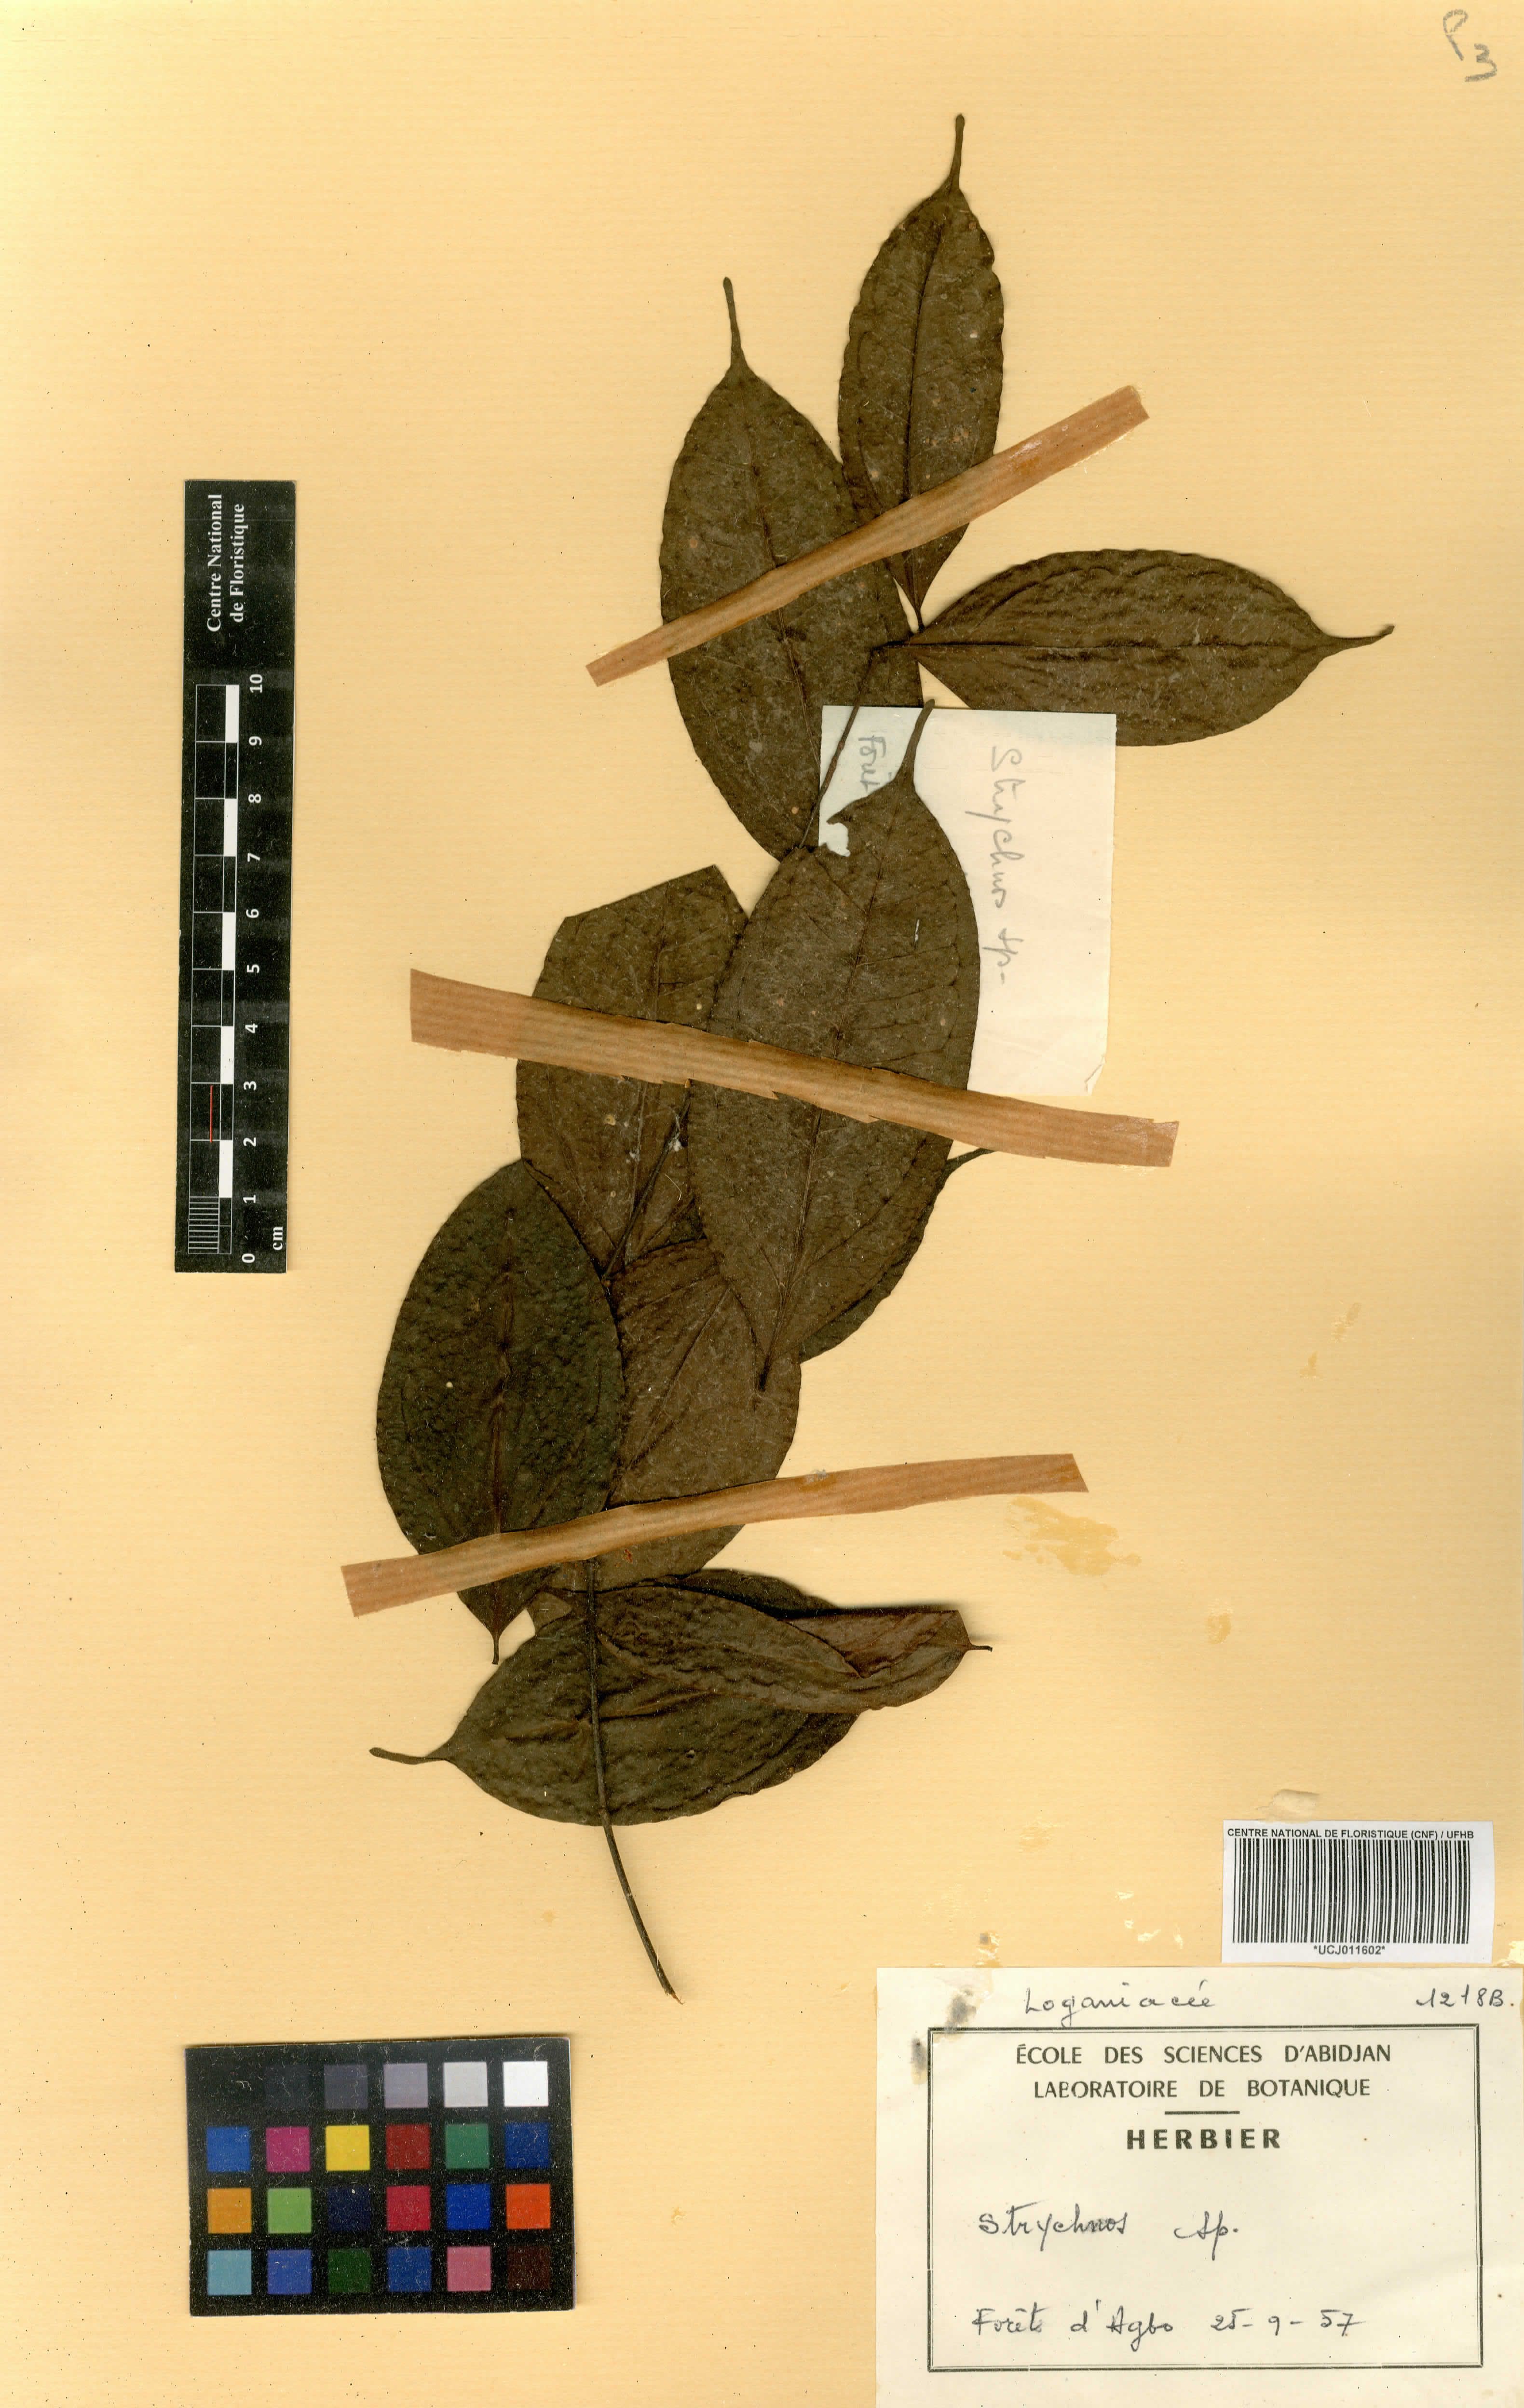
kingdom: Plantae
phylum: Tracheophyta
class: Magnoliopsida
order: Gentianales
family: Loganiaceae
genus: Strychnos
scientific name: Strychnos
